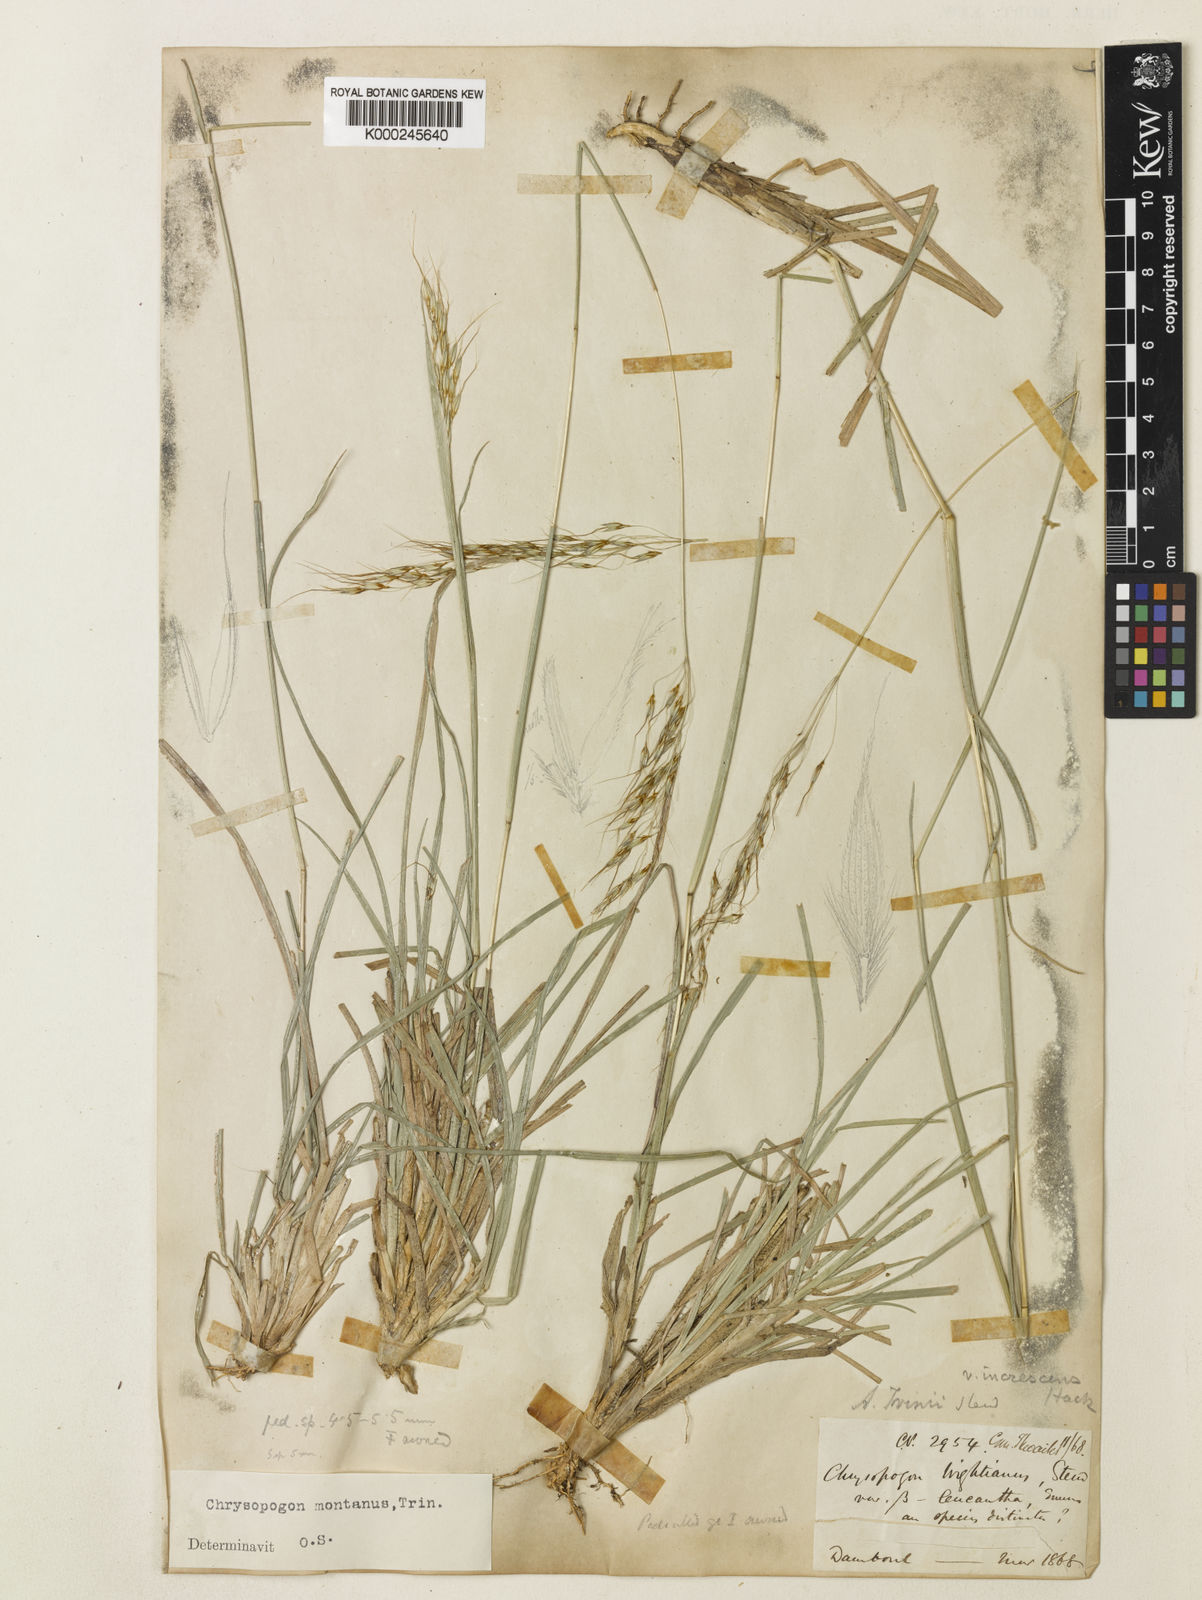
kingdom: Plantae
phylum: Tracheophyta
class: Liliopsida
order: Poales
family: Poaceae
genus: Chrysopogon
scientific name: Chrysopogon serrulatus
